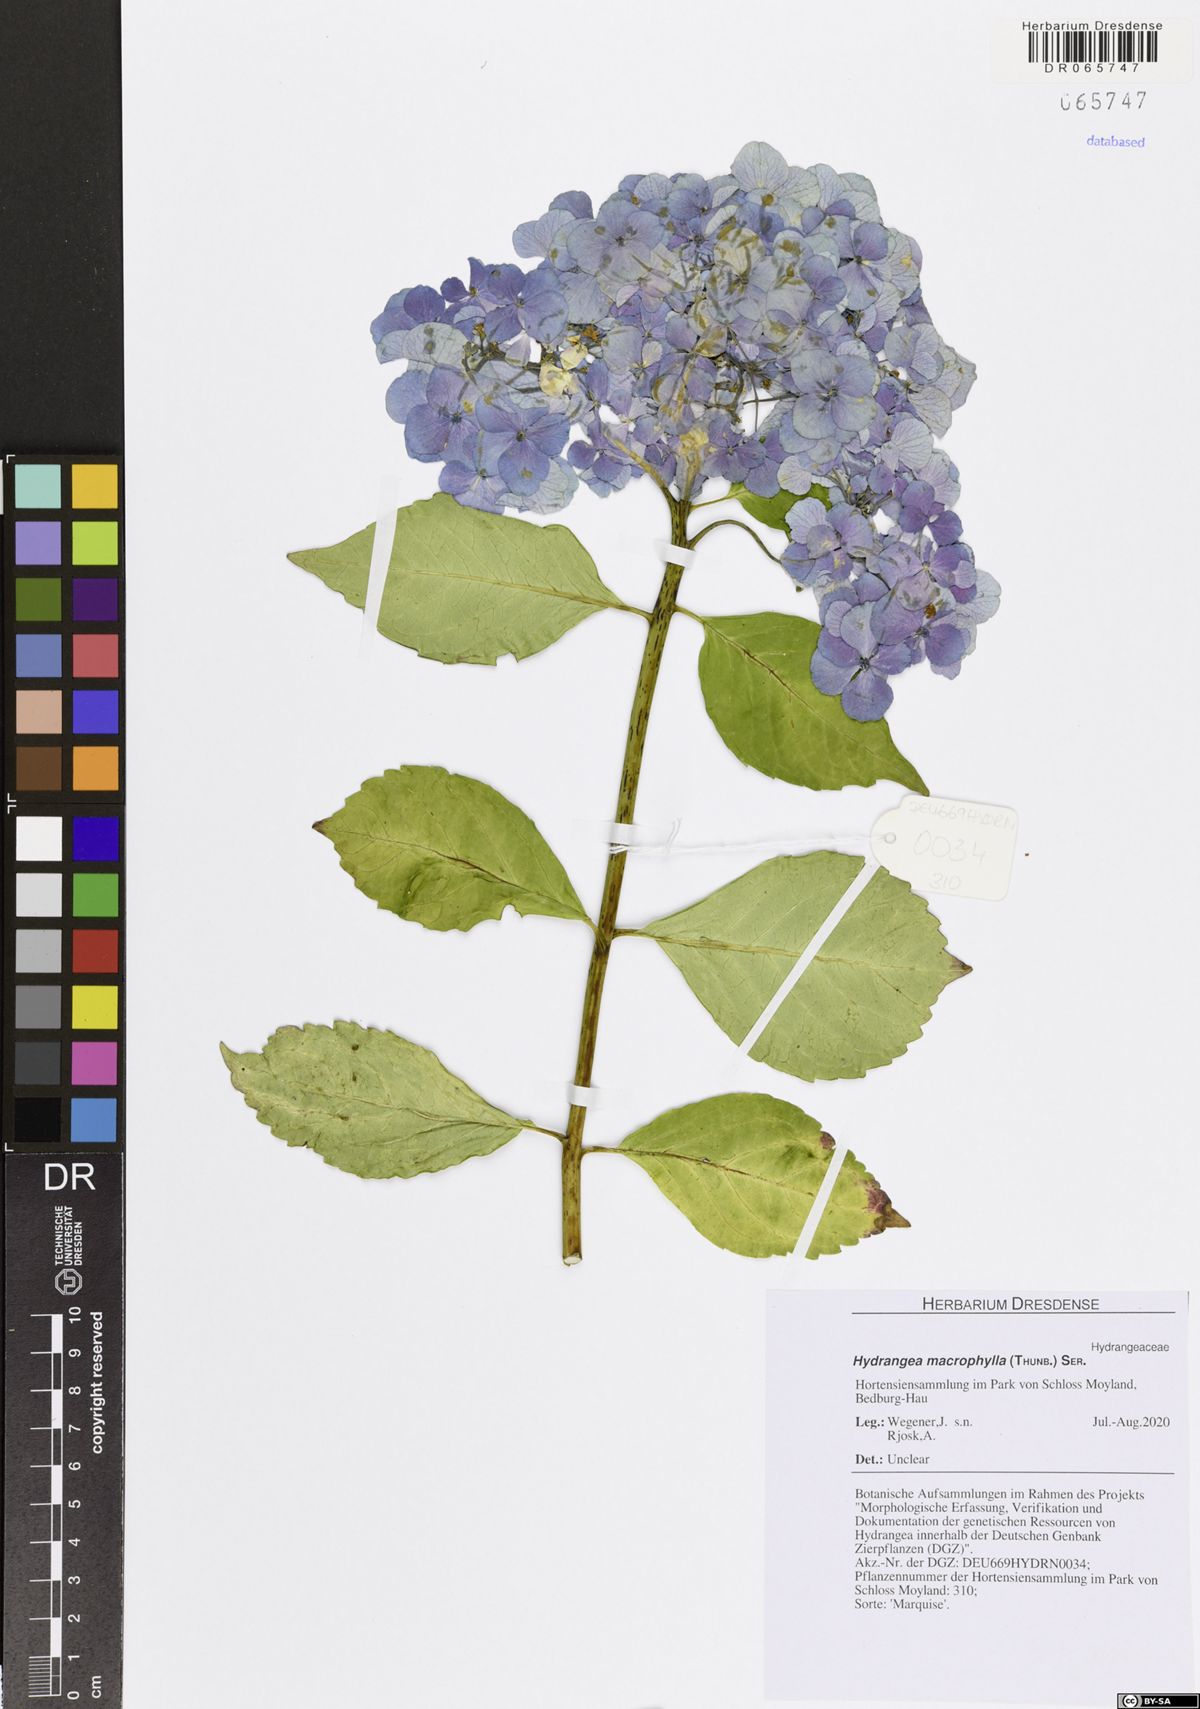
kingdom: Plantae
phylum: Tracheophyta
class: Magnoliopsida
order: Cornales
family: Hydrangeaceae
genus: Hydrangea
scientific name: Hydrangea macrophylla
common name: Hydrangea
